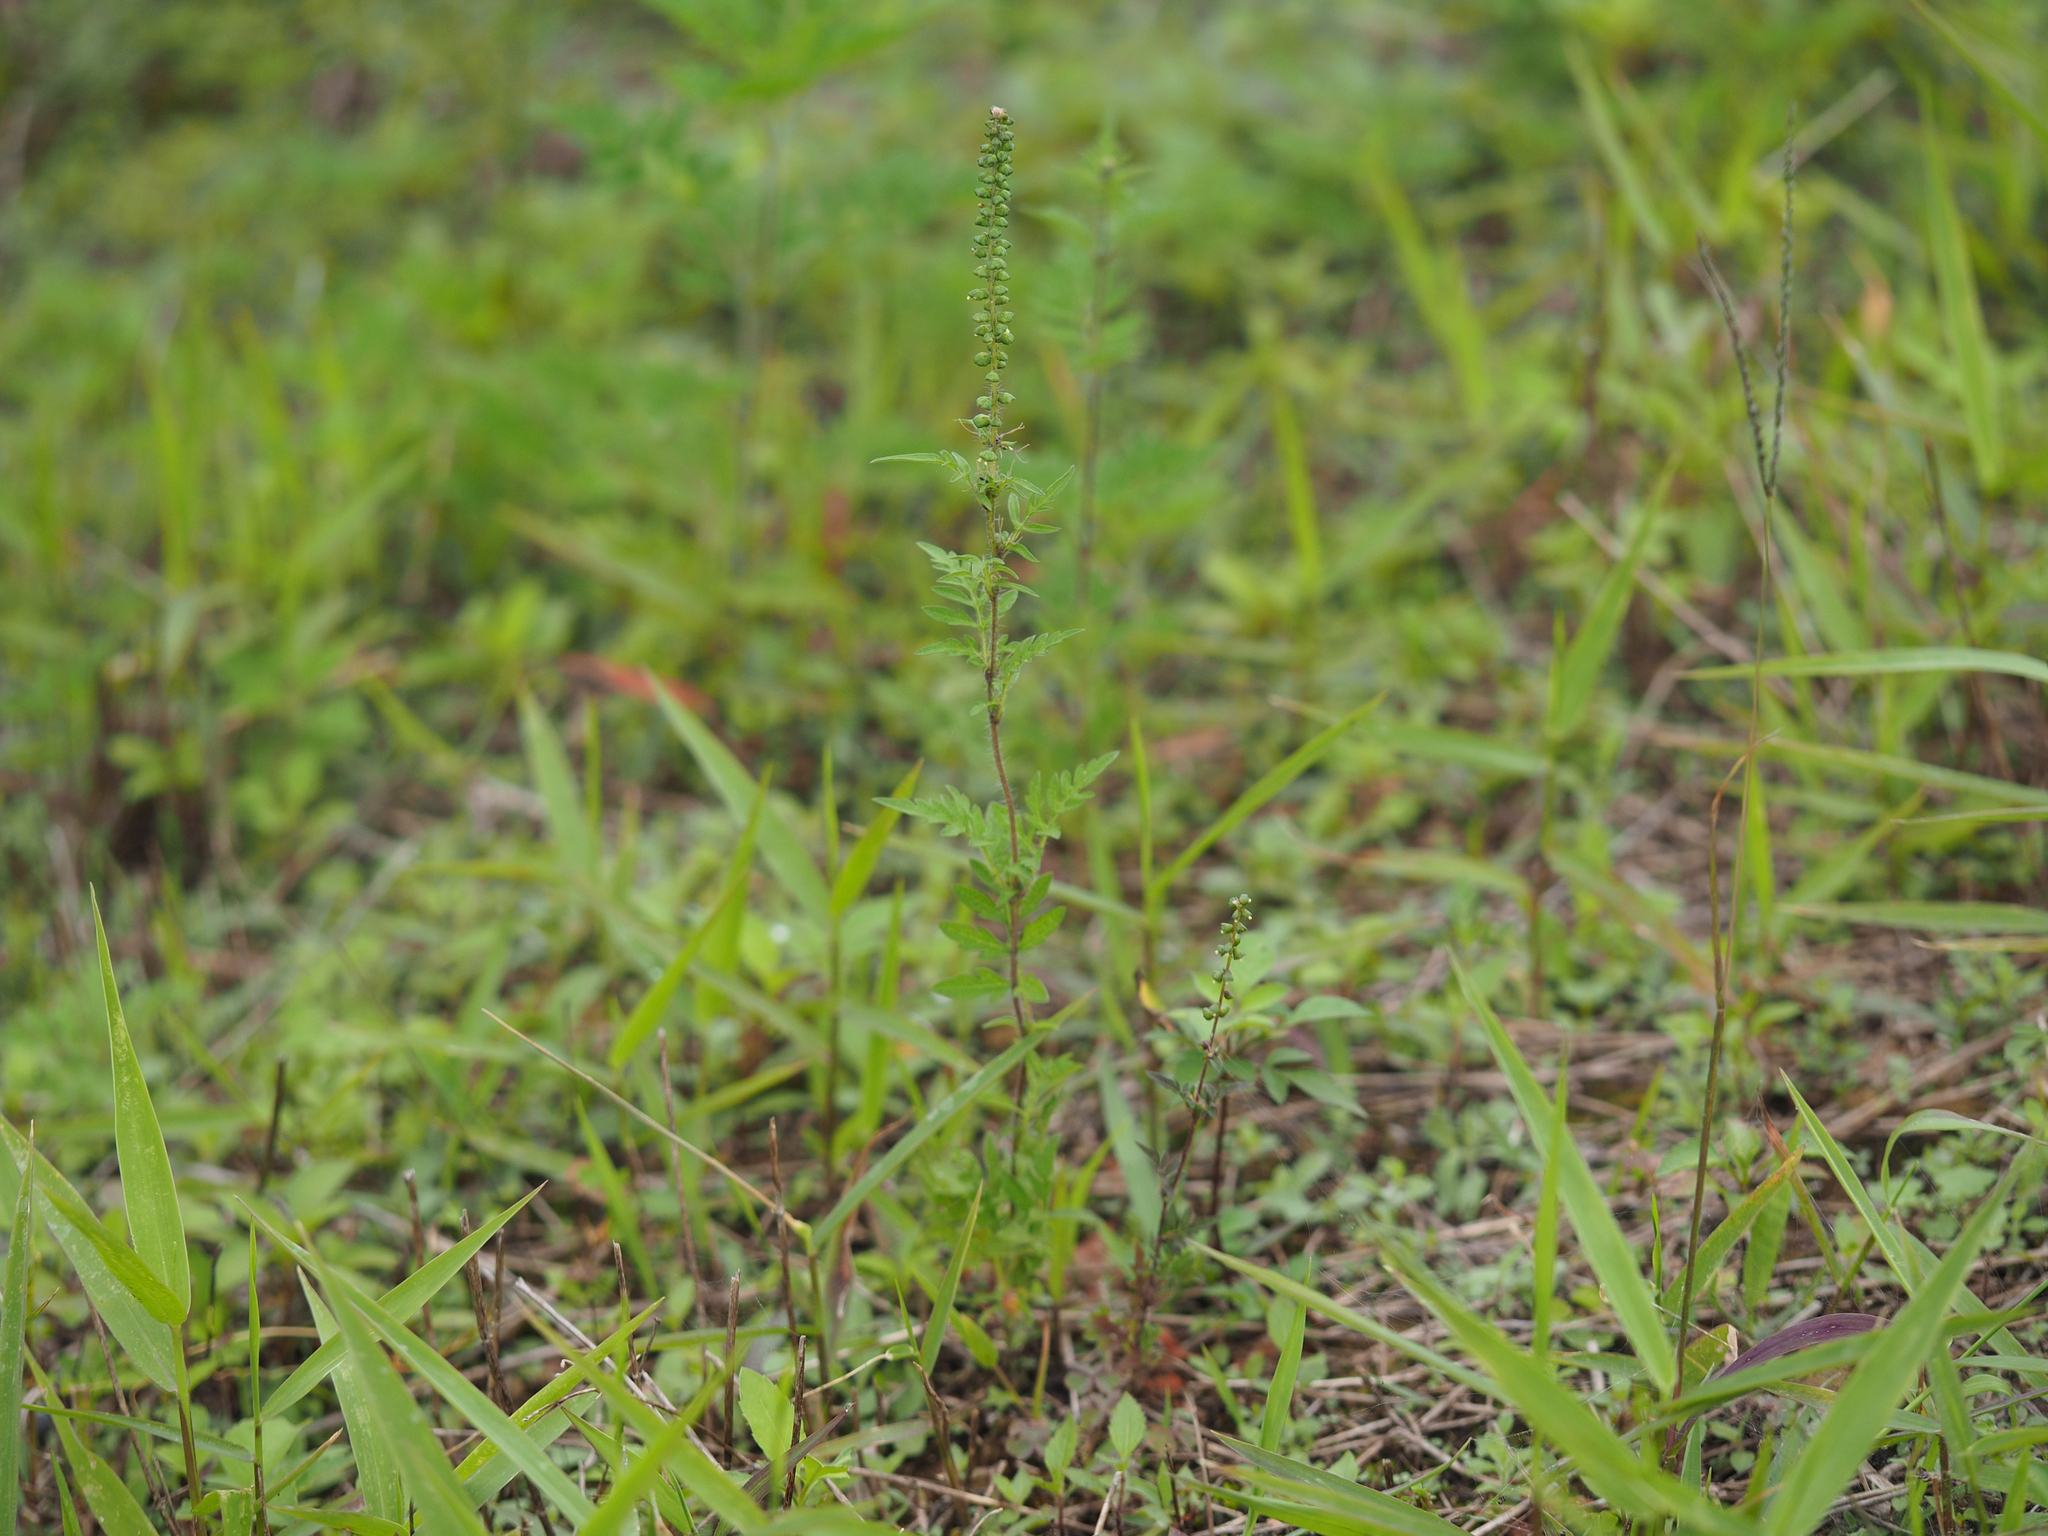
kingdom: Plantae
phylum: Tracheophyta
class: Magnoliopsida
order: Asterales
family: Asteraceae
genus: Ambrosia
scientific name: Ambrosia artemisiifolia
